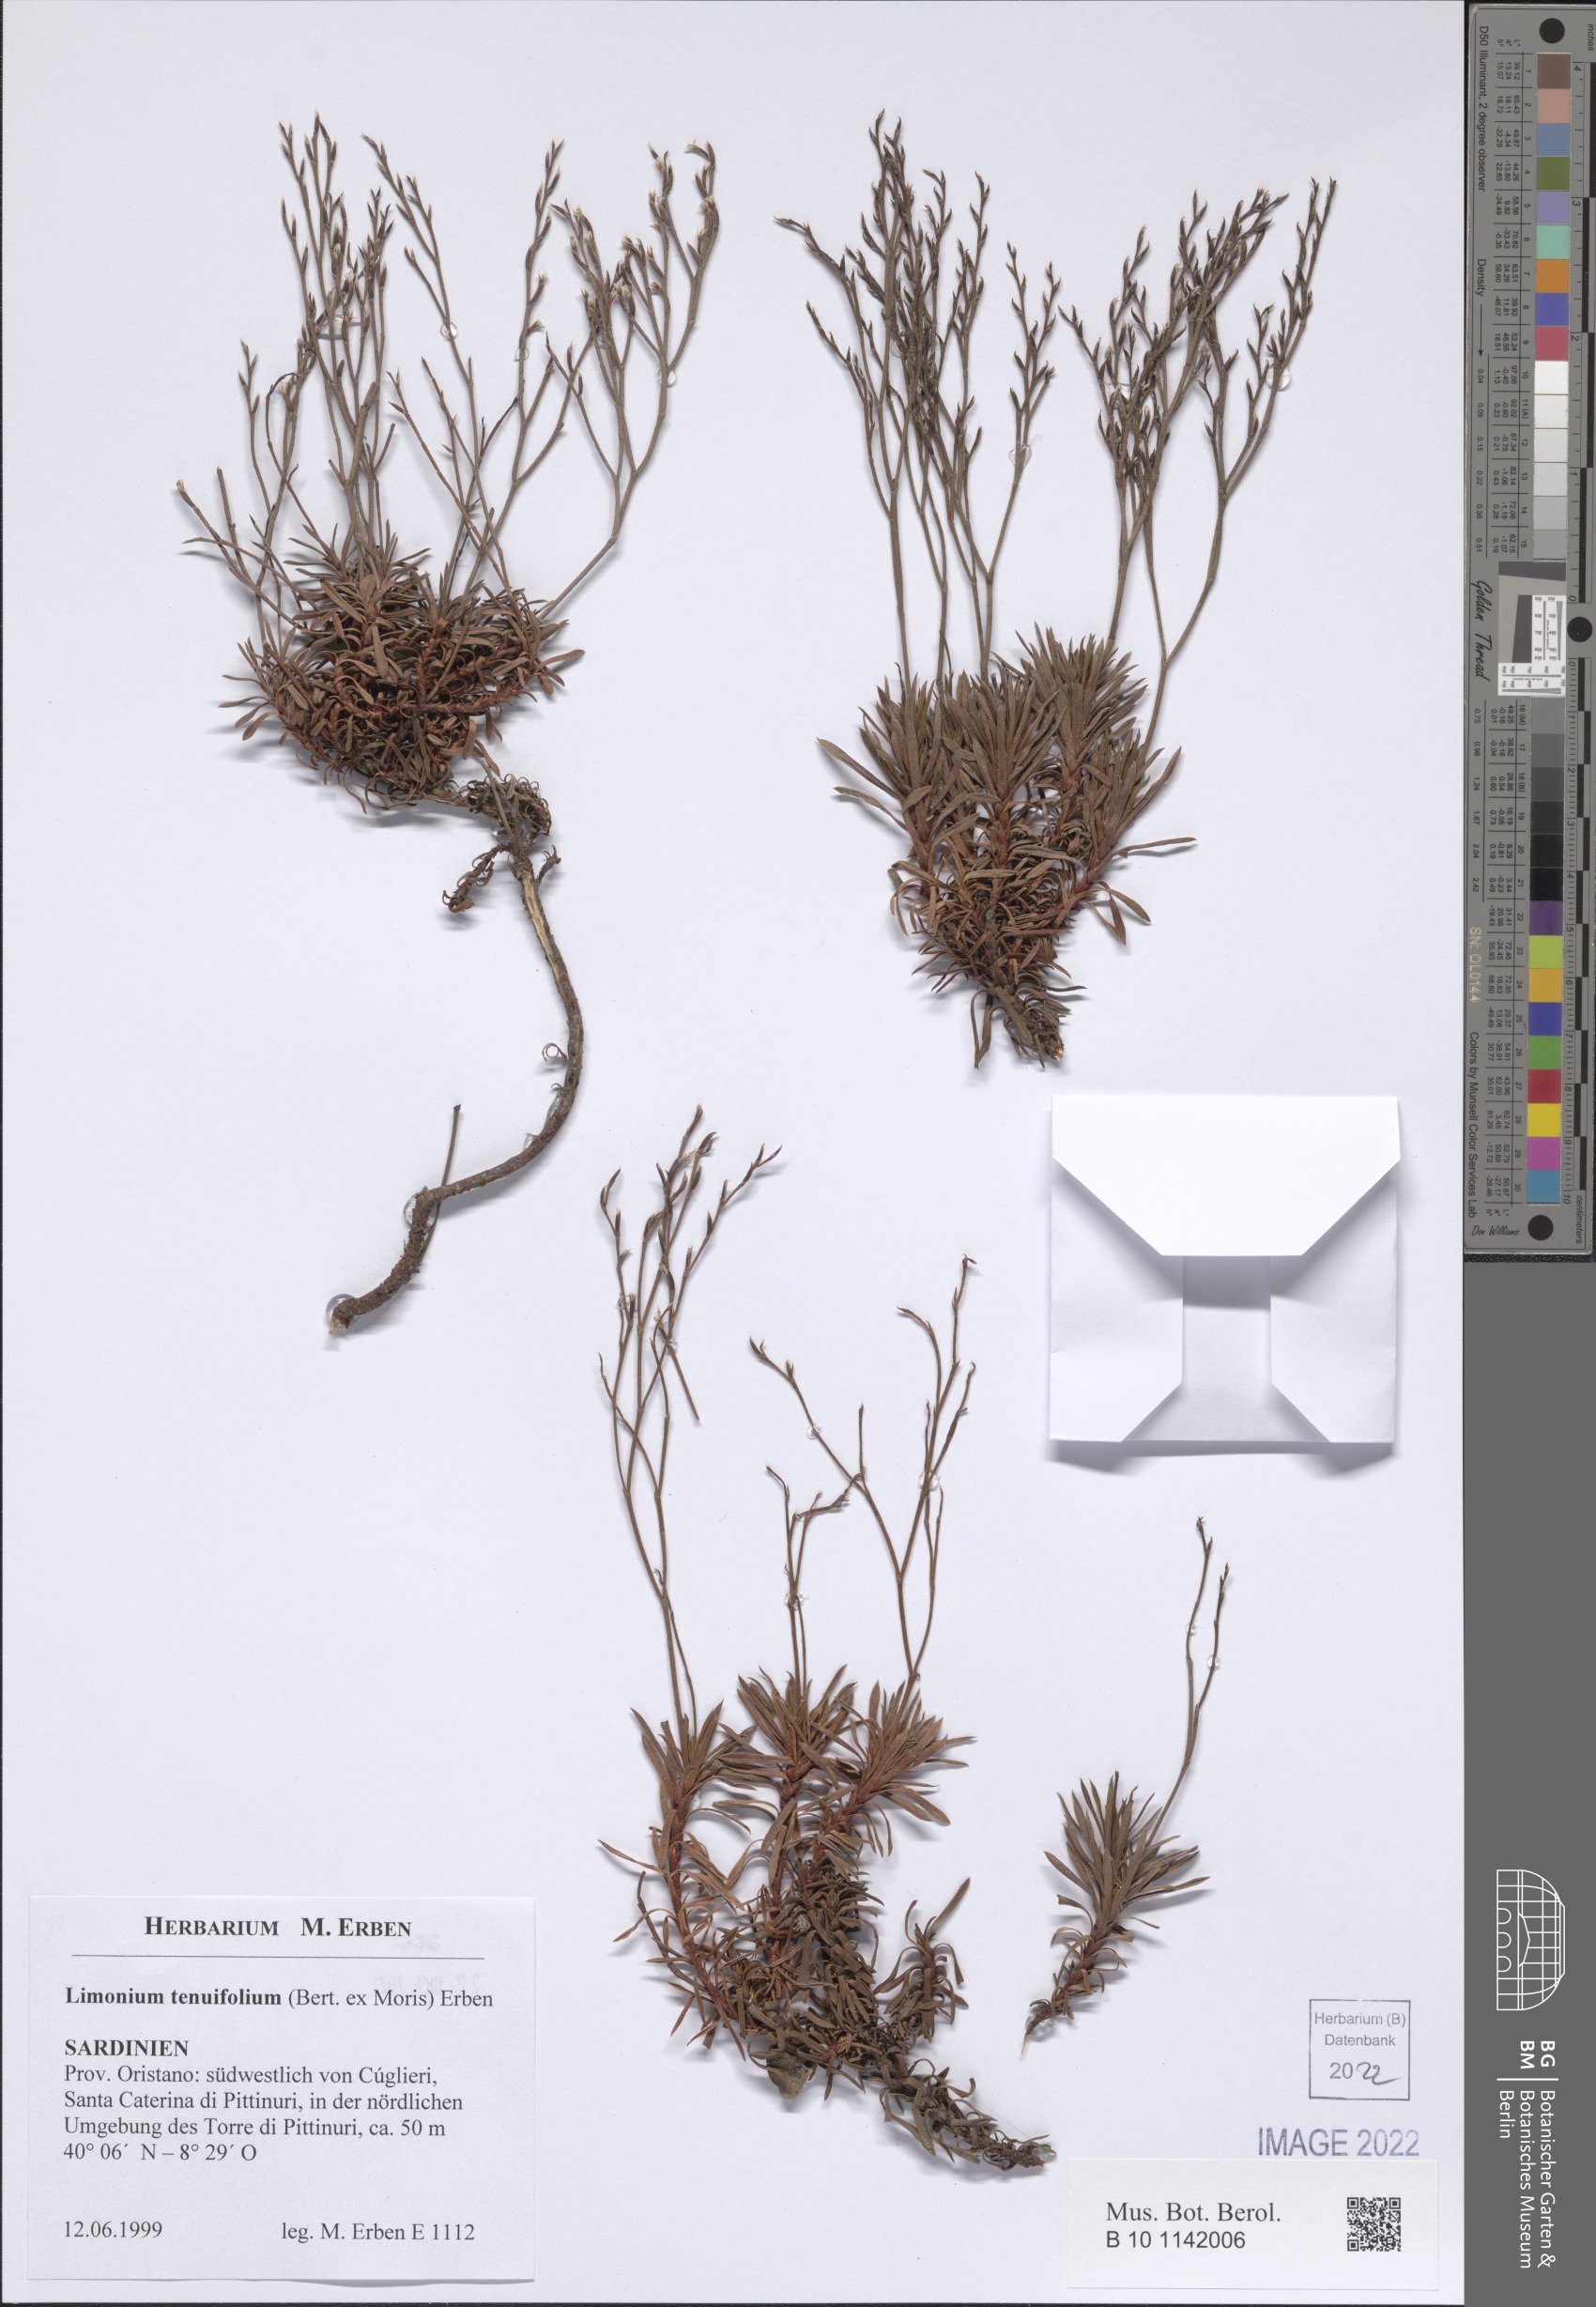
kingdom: Plantae
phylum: Tracheophyta
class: Magnoliopsida
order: Caryophyllales
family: Plumbaginaceae
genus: Limonium
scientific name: Limonium acutifolium
